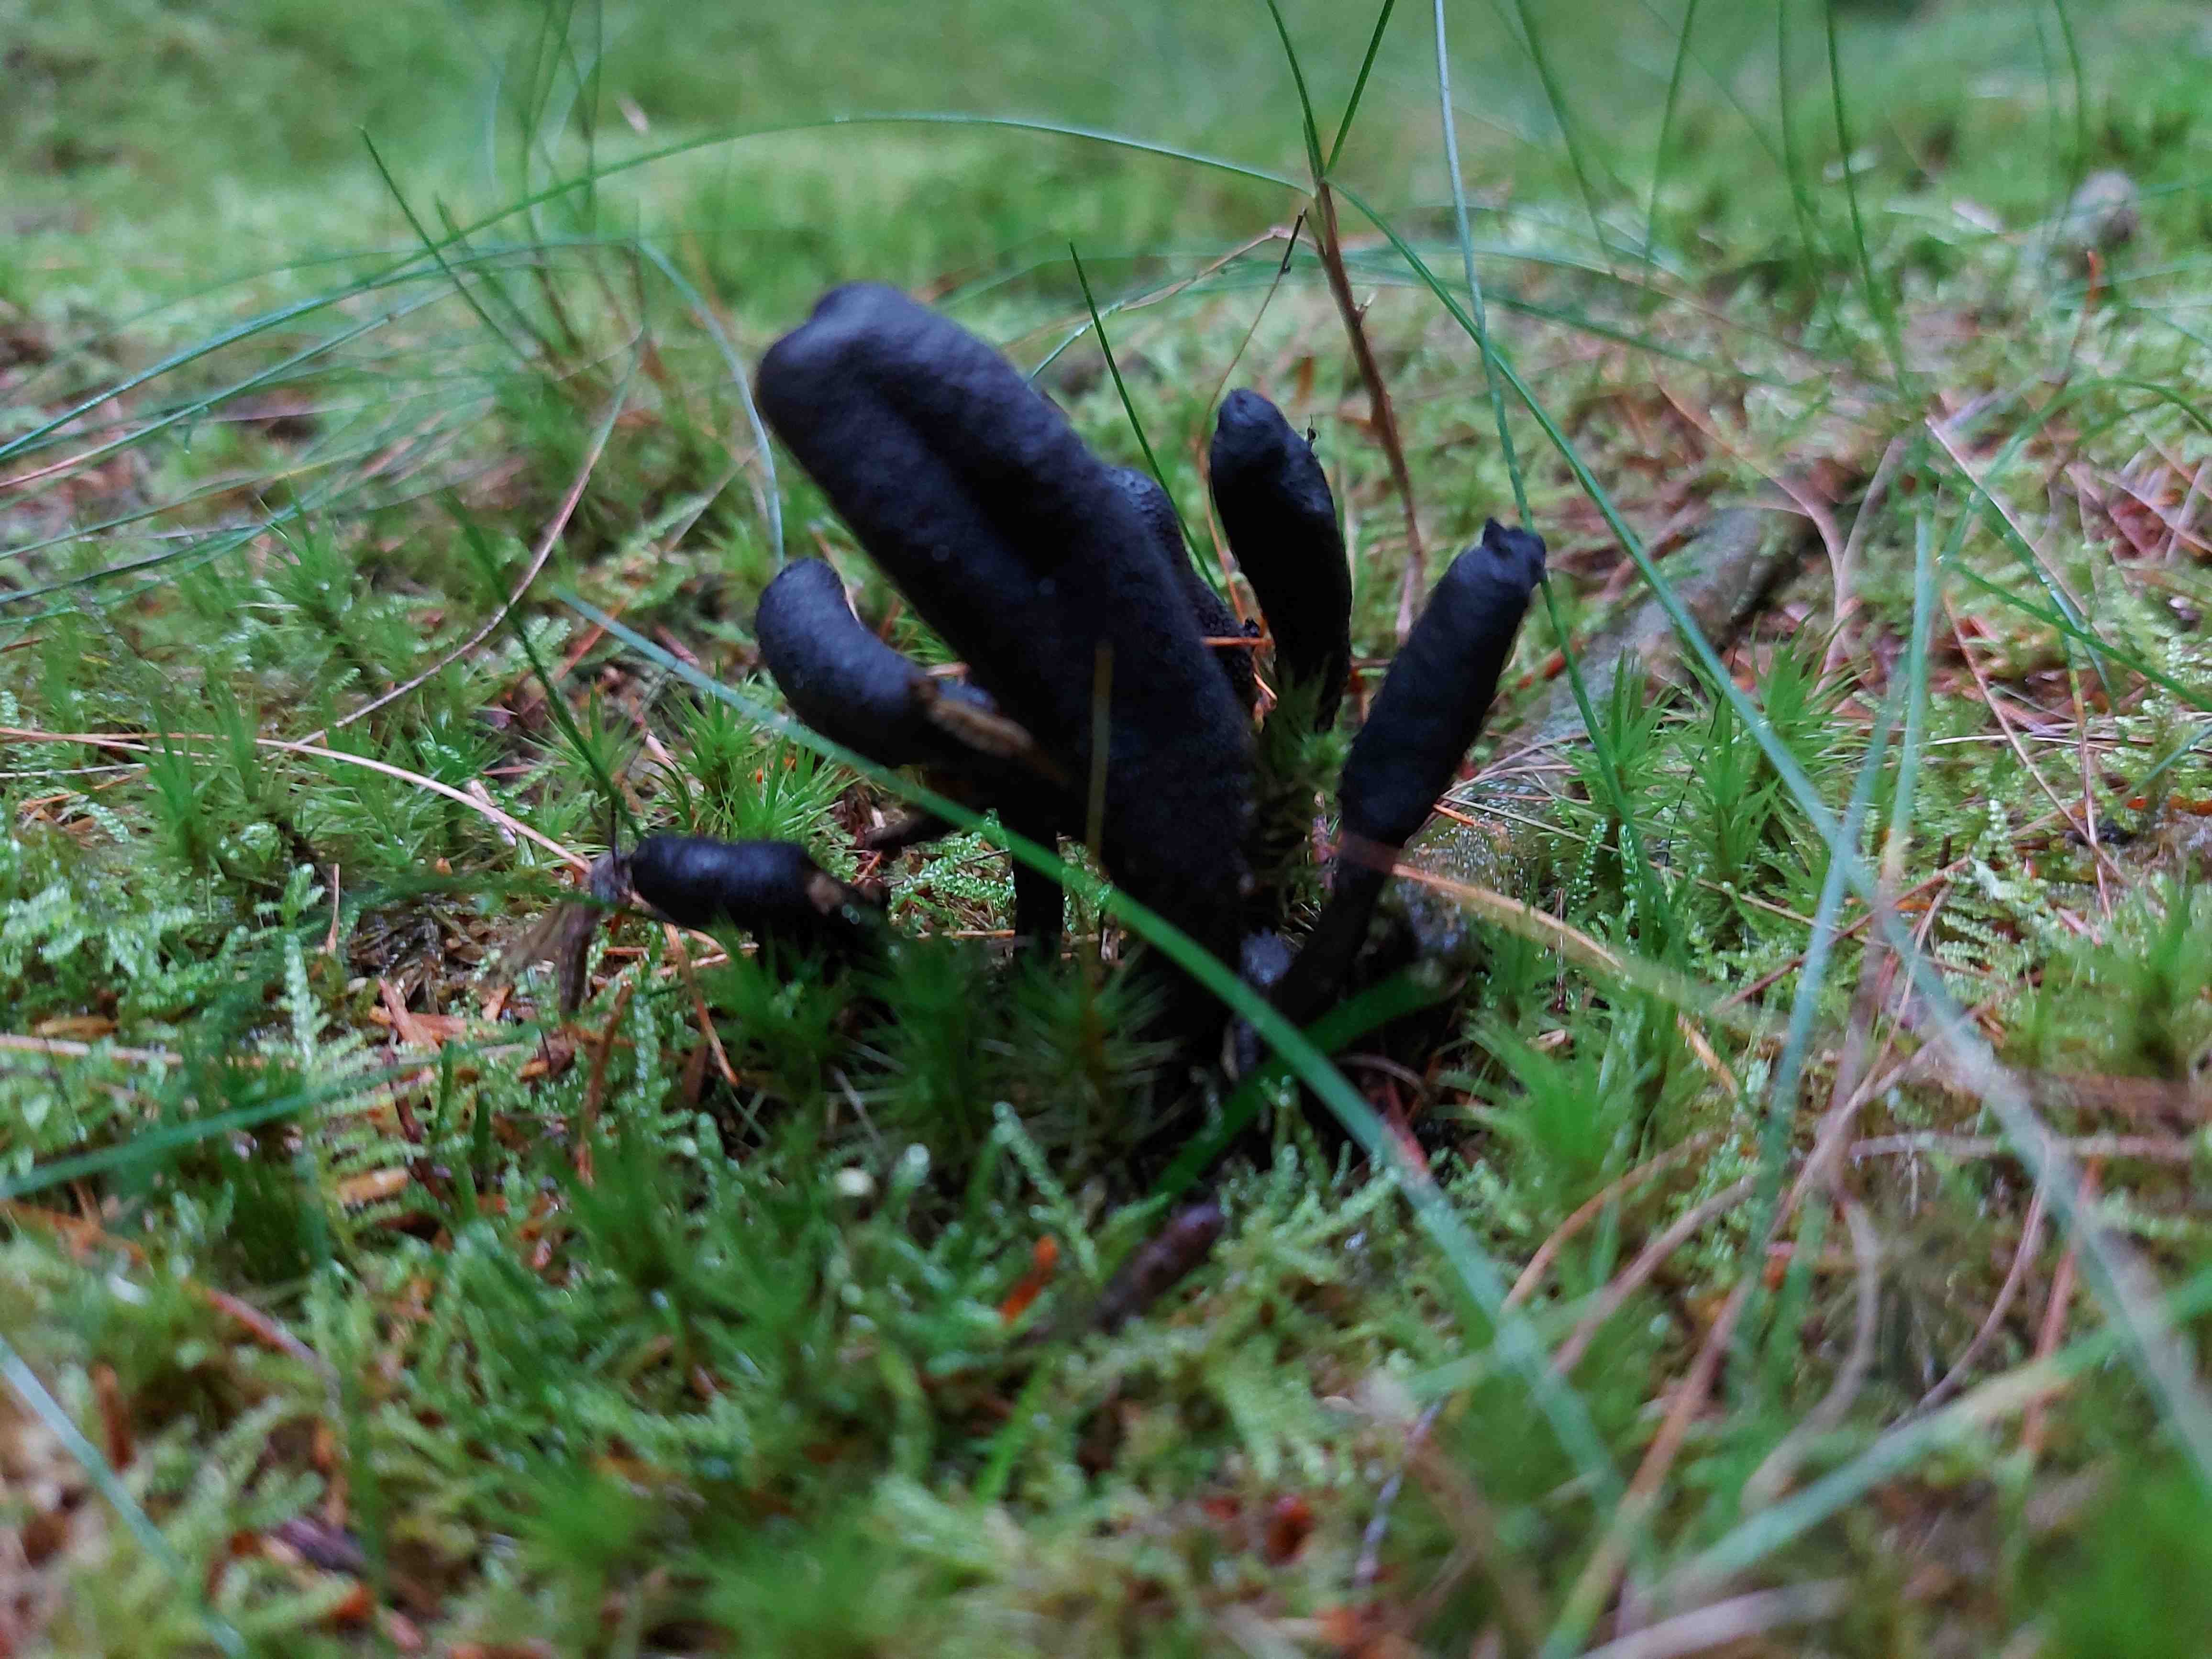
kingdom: Fungi
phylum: Ascomycota
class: Sordariomycetes
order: Hypocreales
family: Ophiocordycipitaceae
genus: Tolypocladium
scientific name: Tolypocladium ophioglossoides
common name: slank snyltekølle
